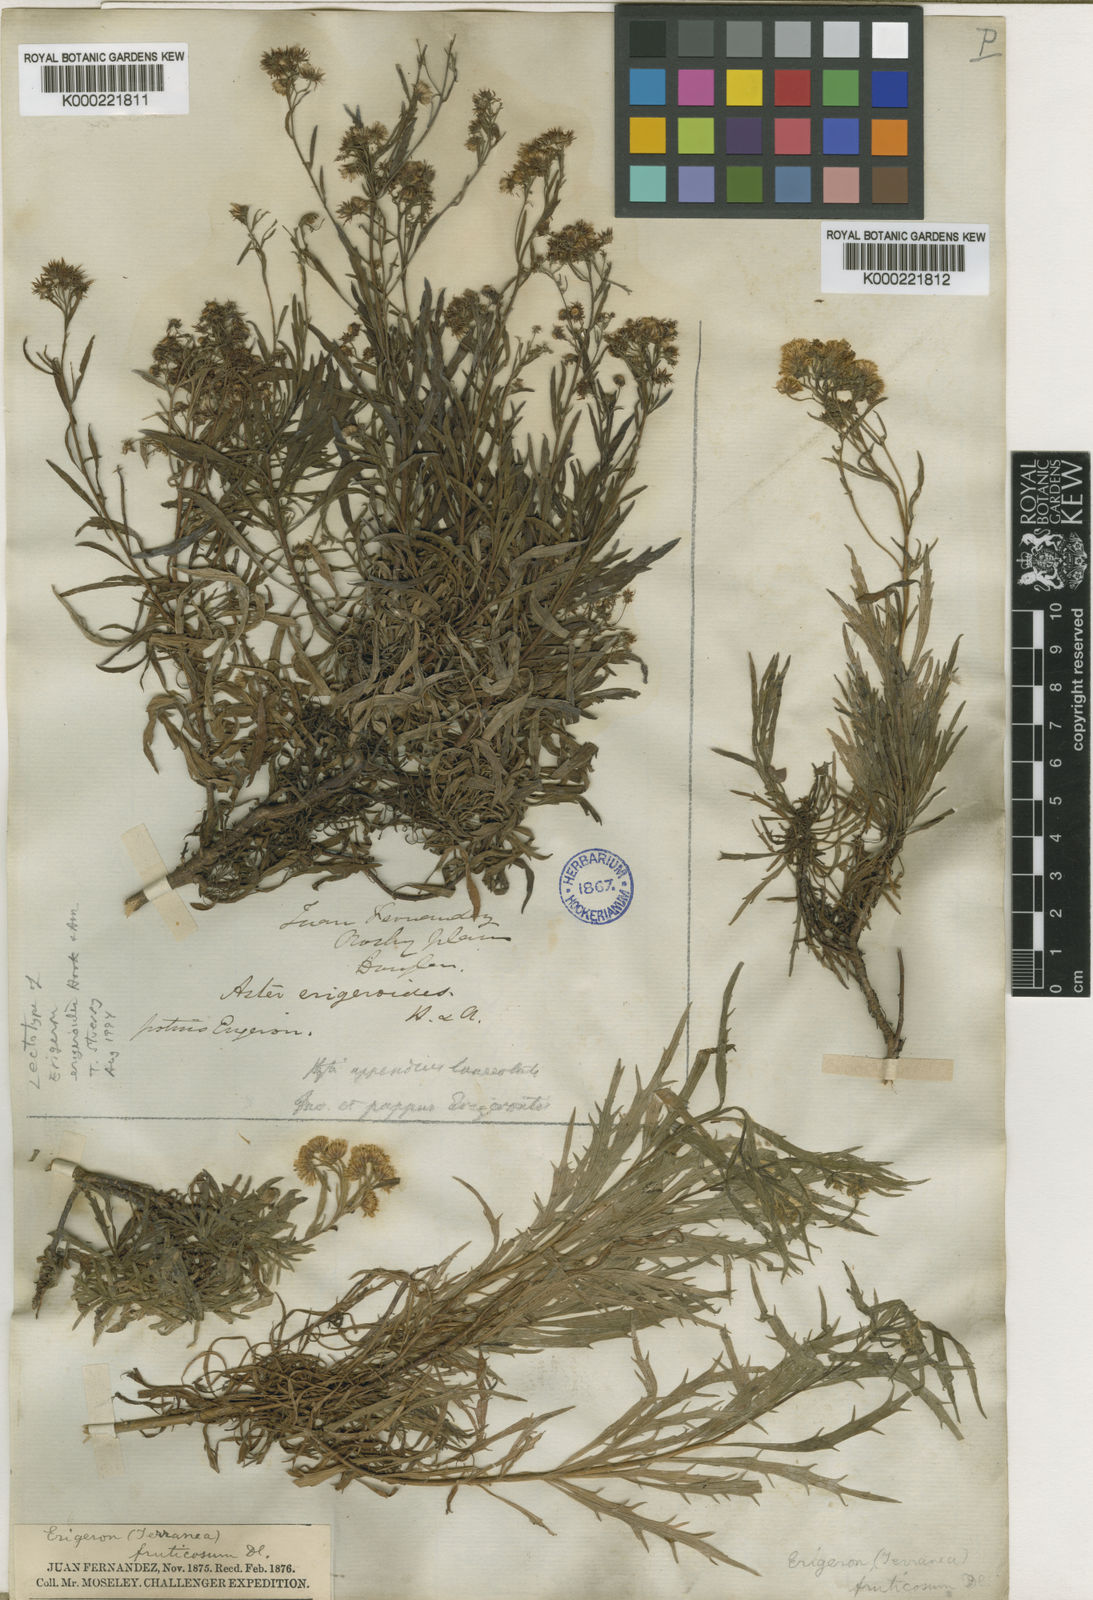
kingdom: Plantae
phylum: Tracheophyta
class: Magnoliopsida
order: Asterales
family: Asteraceae
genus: Erigeron
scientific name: Erigeron ingae
